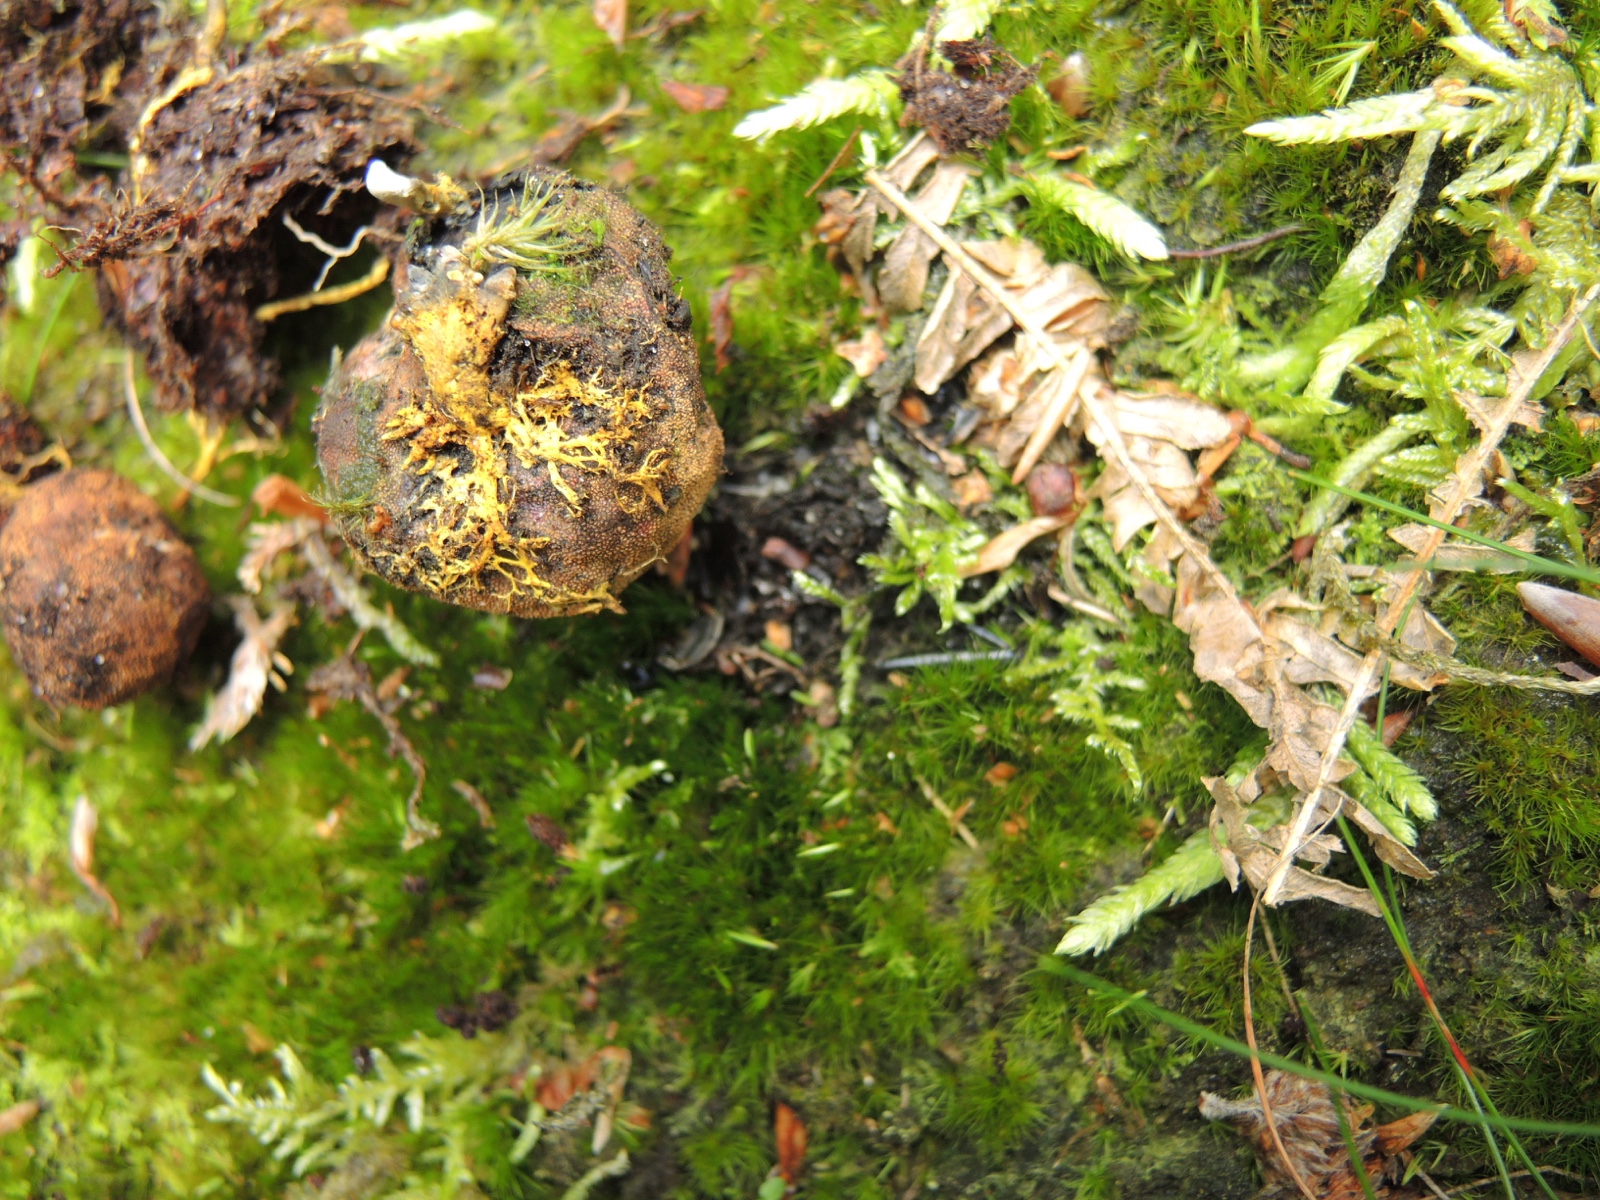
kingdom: Fungi
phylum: Ascomycota
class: Eurotiomycetes
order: Eurotiales
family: Elaphomycetaceae
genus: Elaphomyces
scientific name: Elaphomyces granulatus
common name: grynet hjortetrøffel
